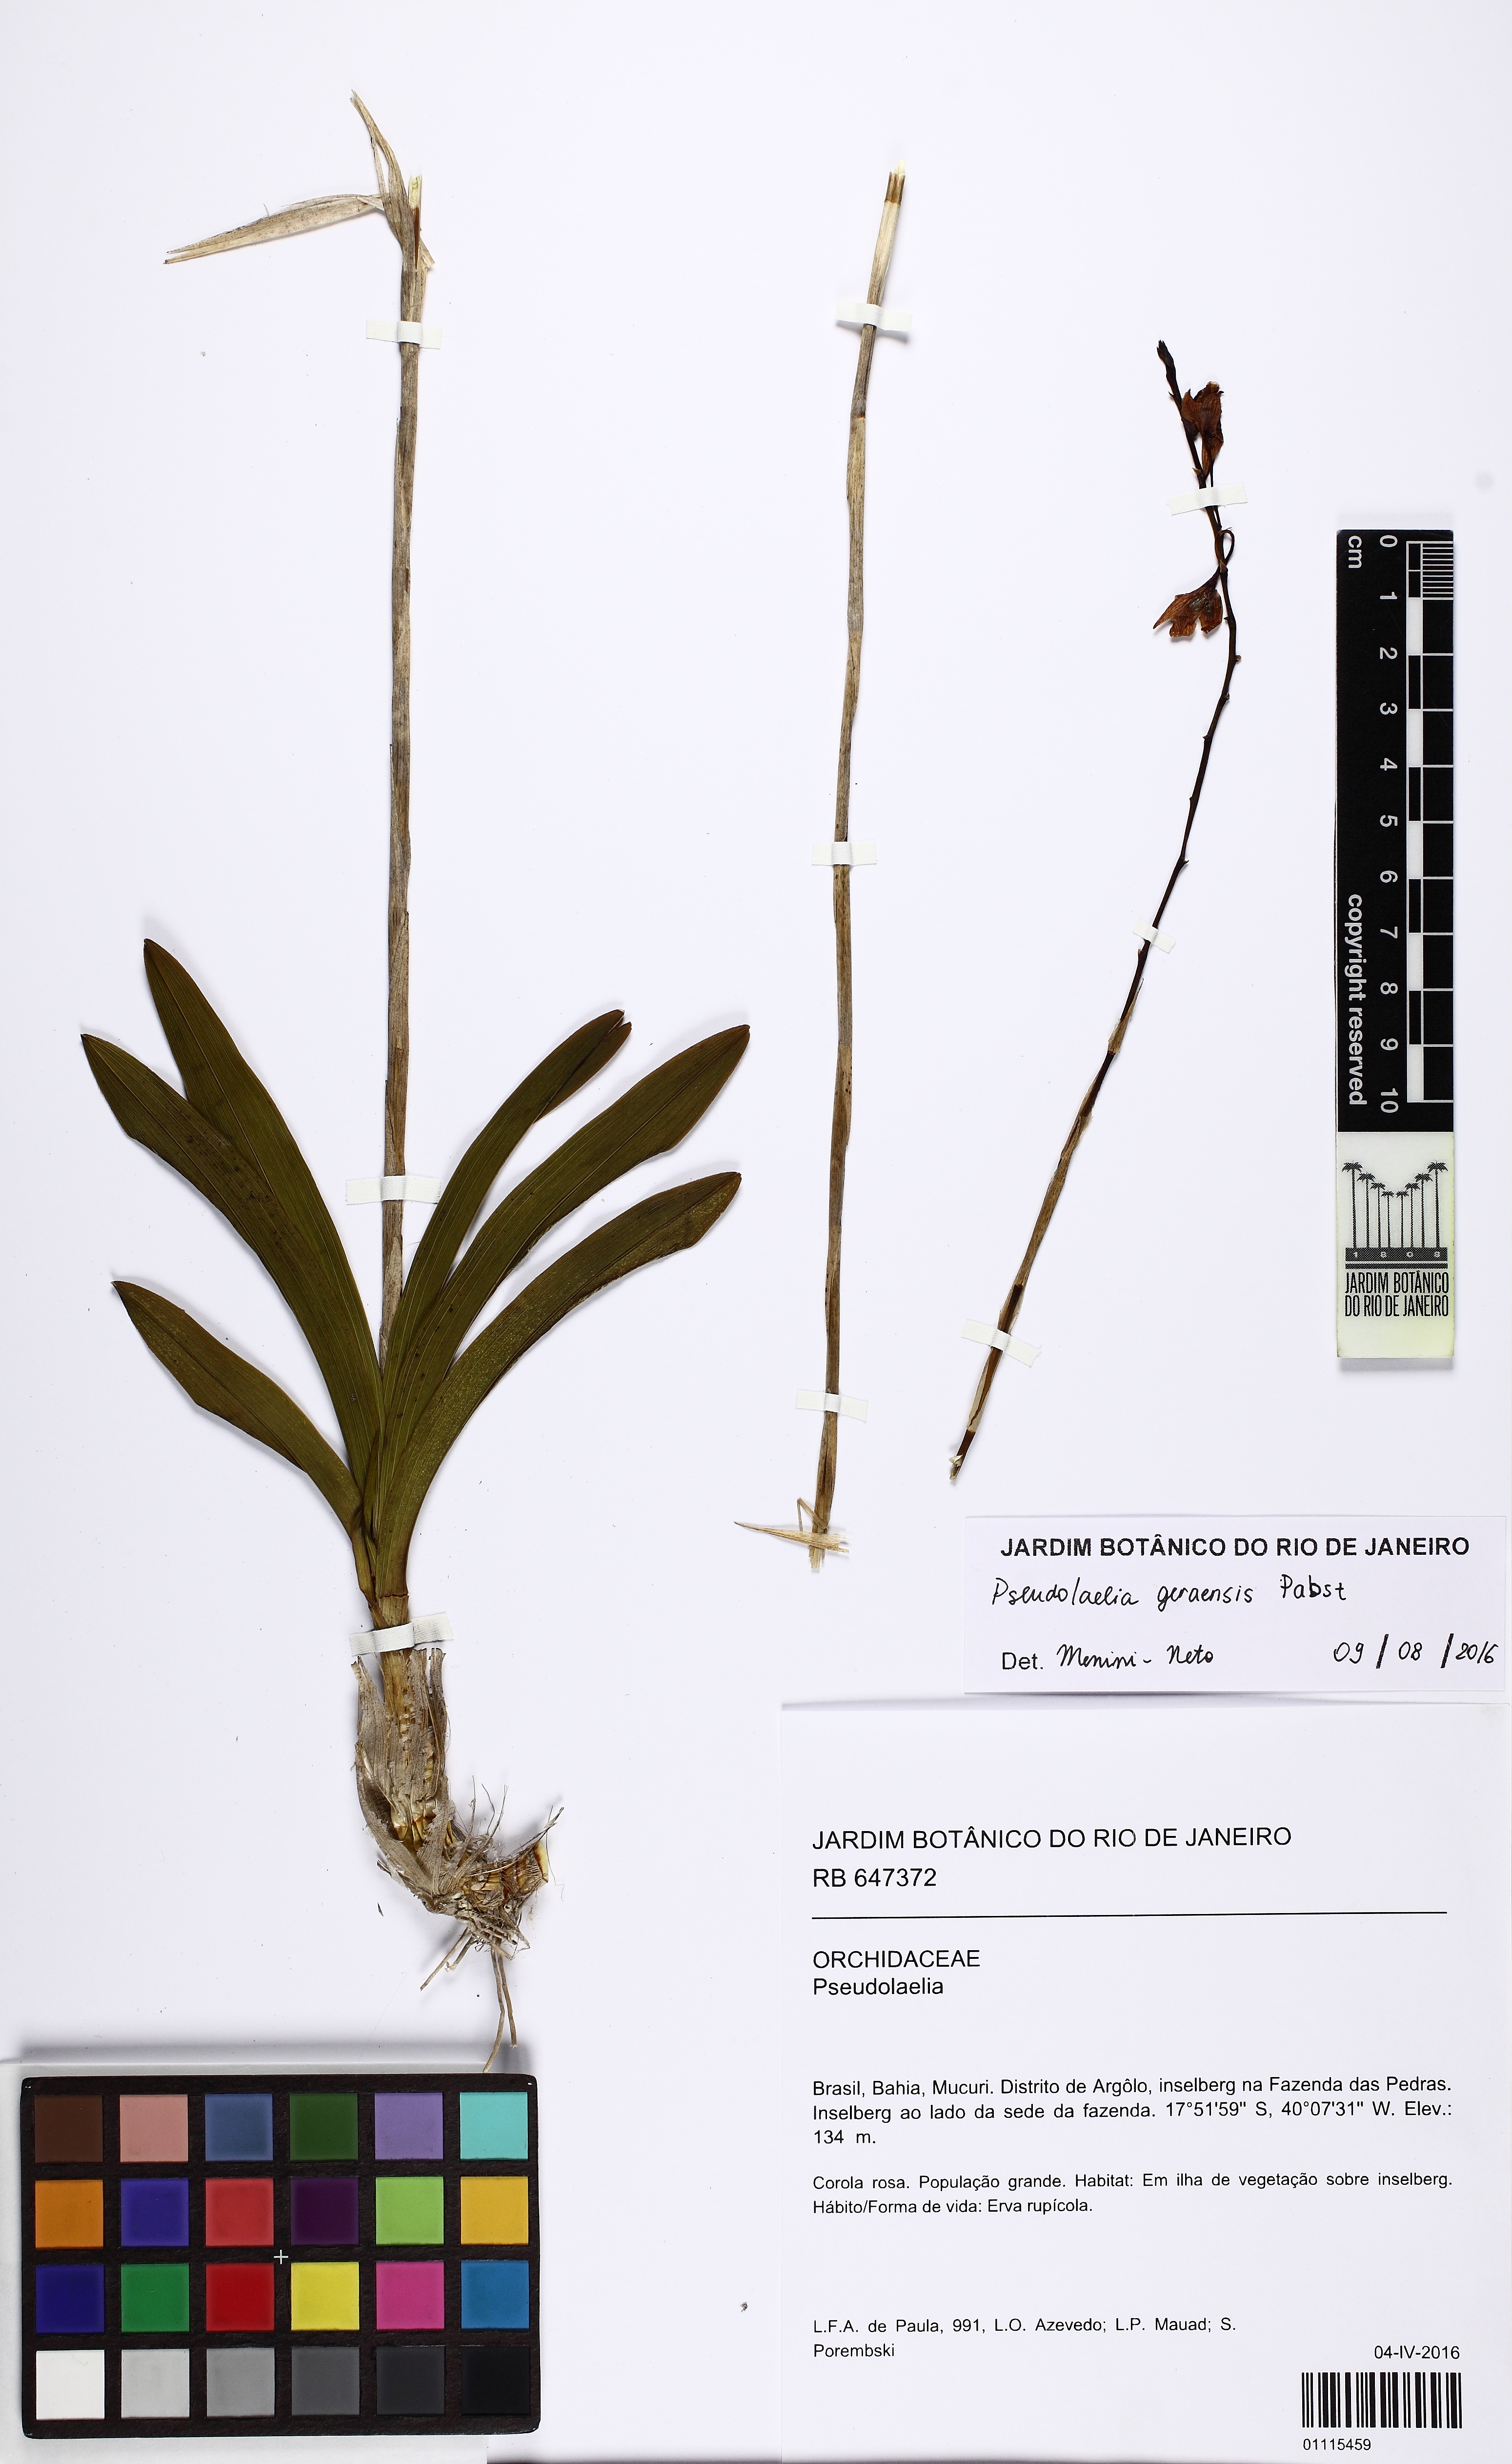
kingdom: Plantae
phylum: Tracheophyta
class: Liliopsida
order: Asparagales
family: Orchidaceae
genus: Pseudolaelia
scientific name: Pseudolaelia geraensis
